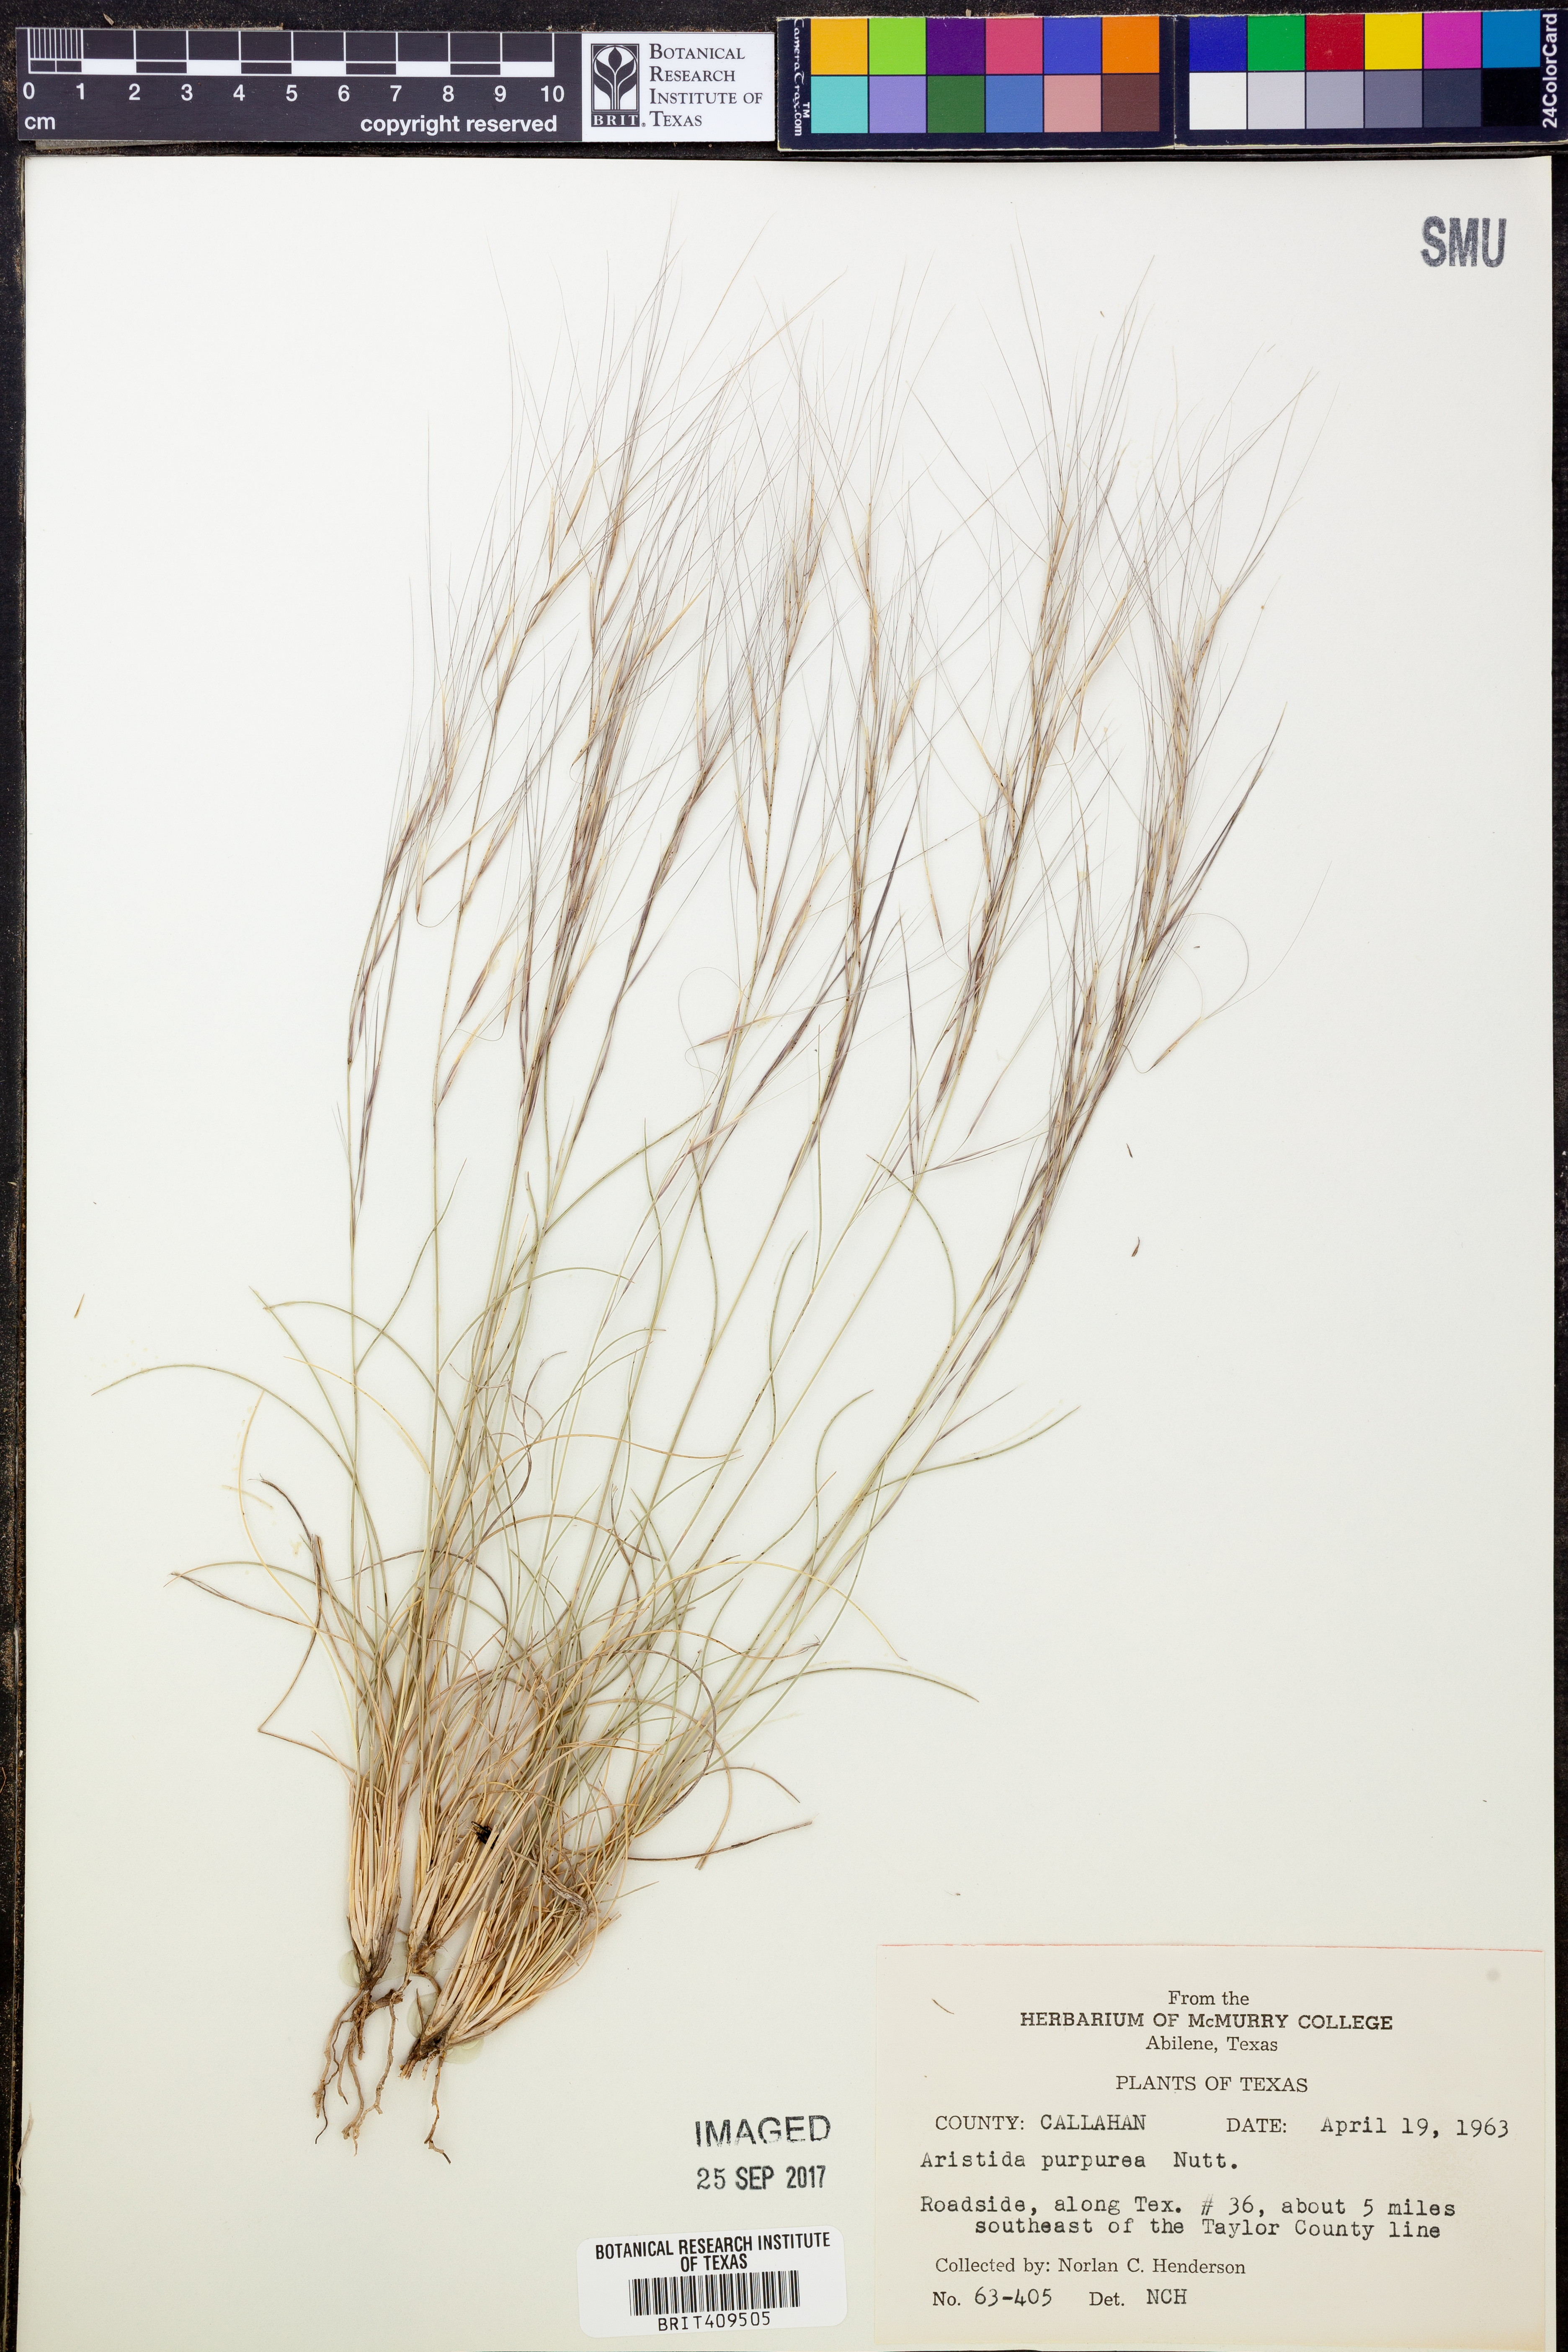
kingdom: Plantae
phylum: Tracheophyta
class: Liliopsida
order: Poales
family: Poaceae
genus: Aristida
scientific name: Aristida purpurea
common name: Purple threeawn
